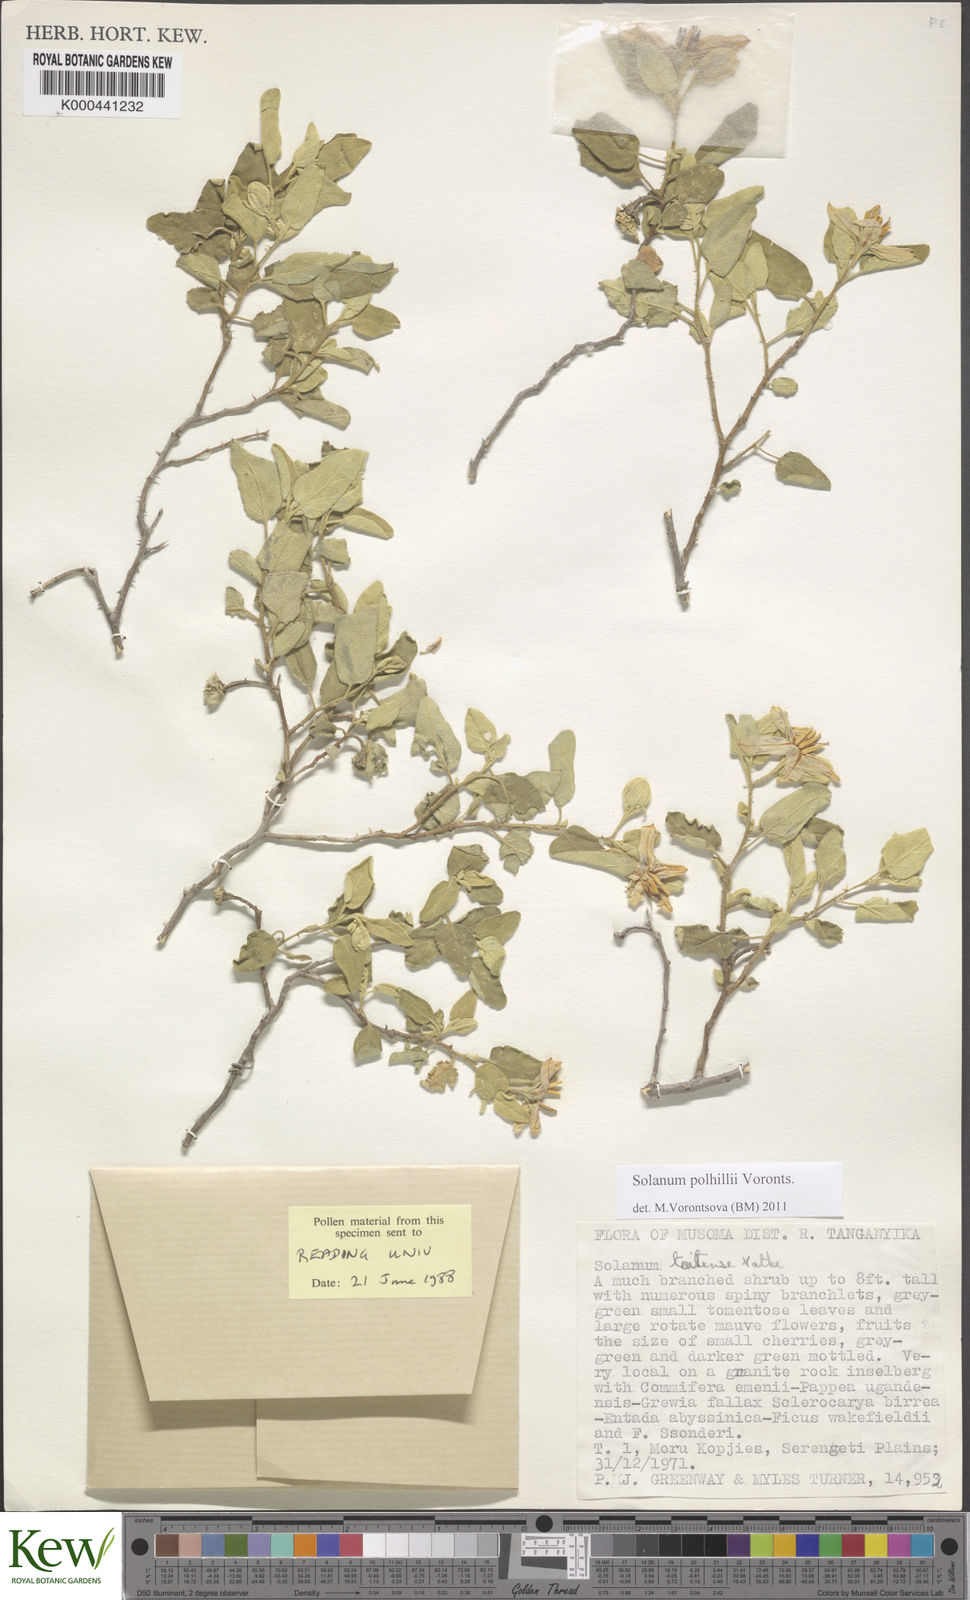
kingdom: Plantae
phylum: Tracheophyta
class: Magnoliopsida
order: Solanales
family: Solanaceae
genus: Solanum
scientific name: Solanum polhillii
